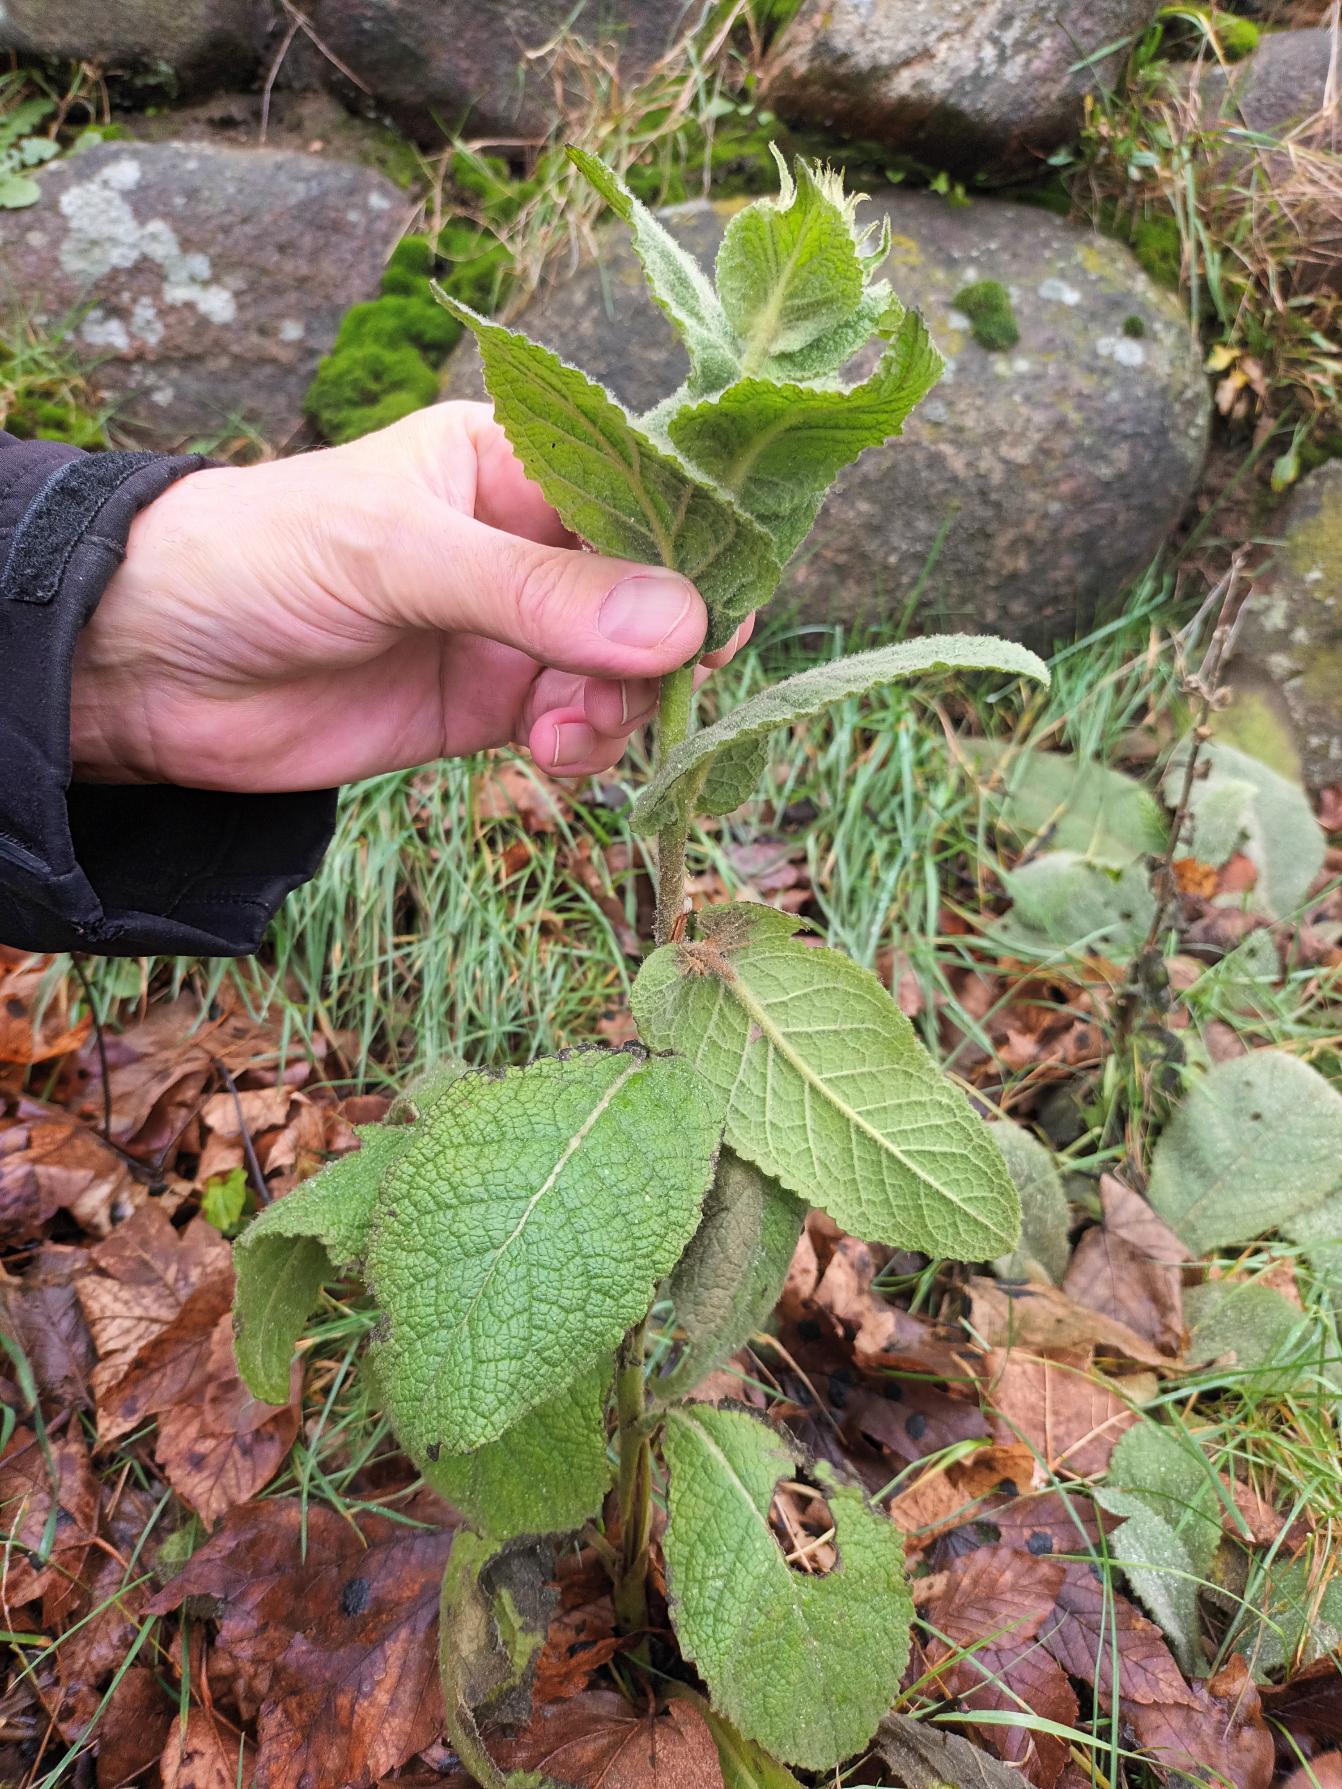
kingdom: Plantae
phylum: Tracheophyta
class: Magnoliopsida
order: Lamiales
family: Scrophulariaceae
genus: Verbascum
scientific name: Verbascum phlomoides
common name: Hjertebladet kongelys
